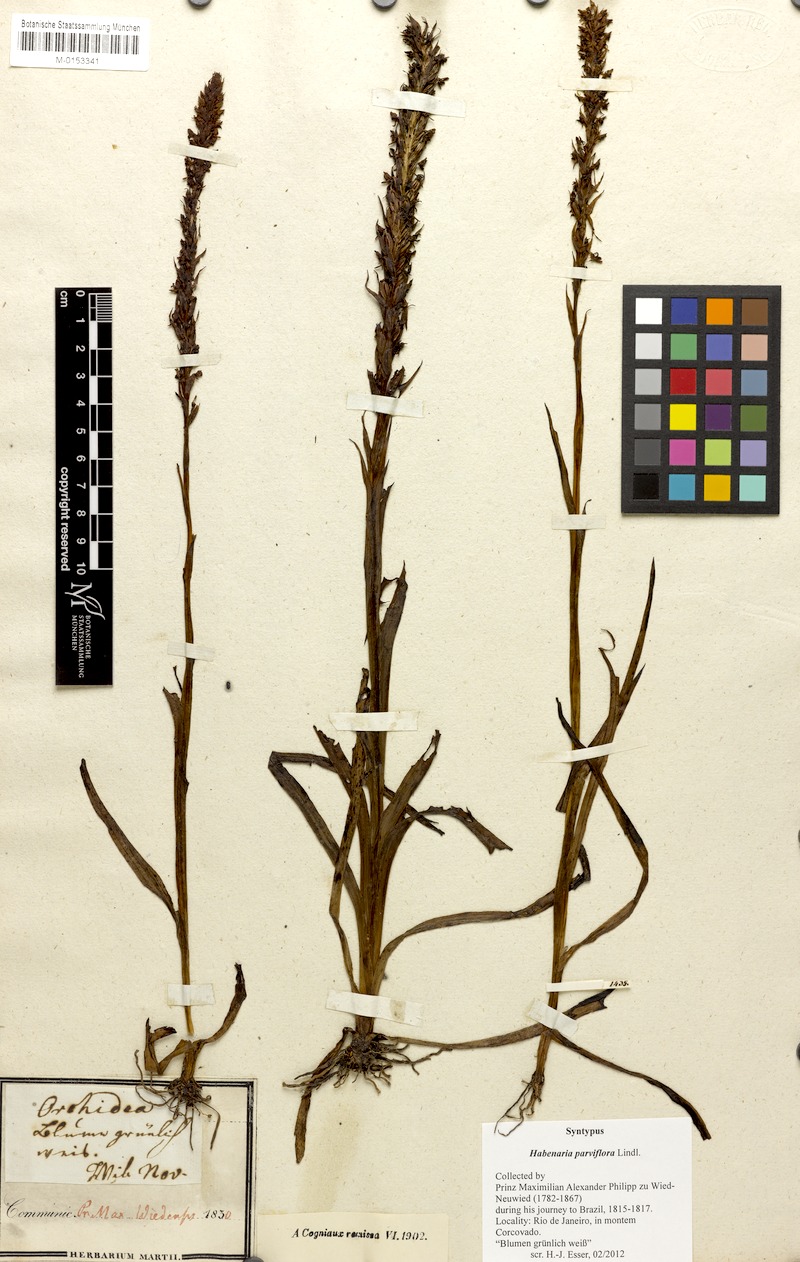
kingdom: Plantae
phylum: Tracheophyta
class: Liliopsida
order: Asparagales
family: Orchidaceae
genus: Habenaria
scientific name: Habenaria parviflora
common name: Small flowered habenaria
